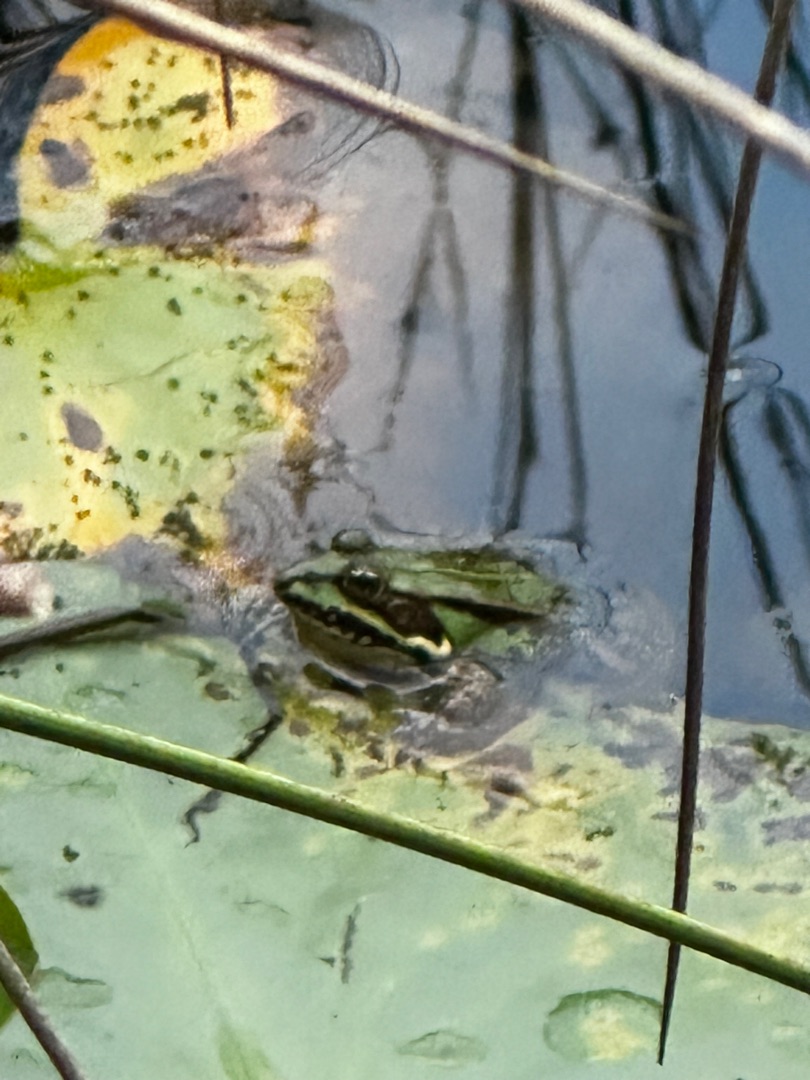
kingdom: Animalia
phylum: Chordata
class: Amphibia
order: Anura
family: Ranidae
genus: Pelophylax
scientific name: Pelophylax lessonae
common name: Grøn frø
